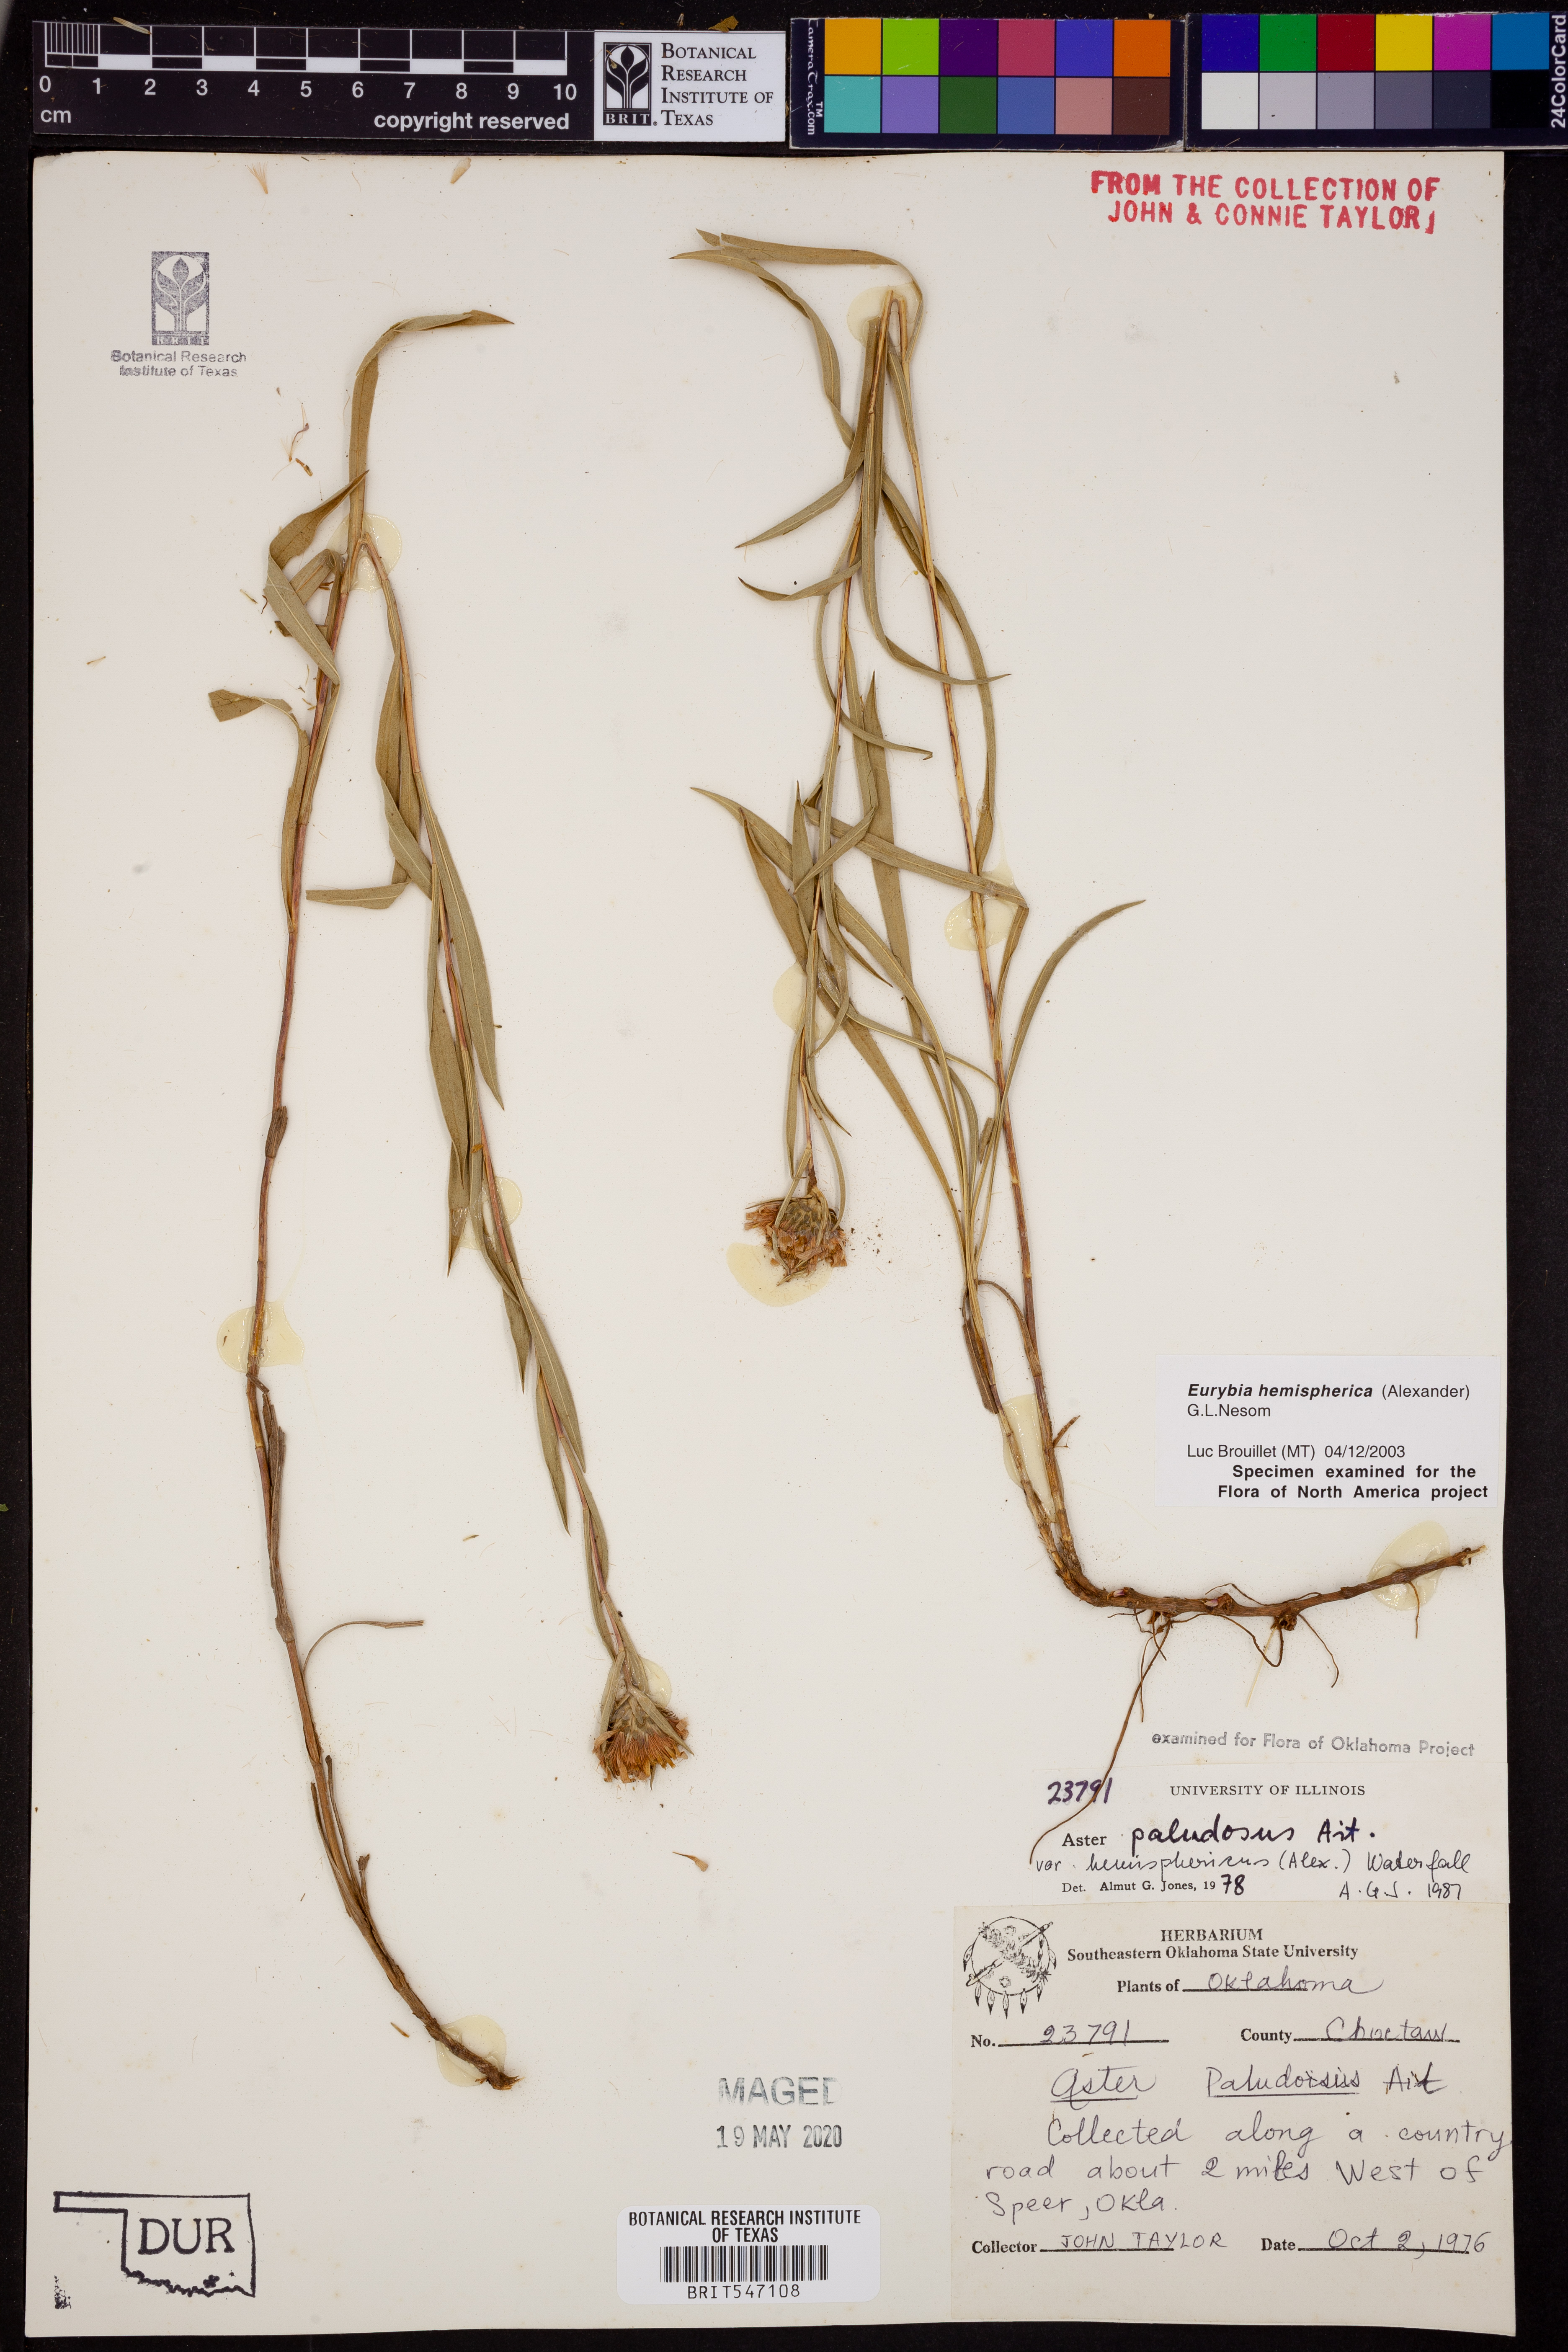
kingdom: Plantae
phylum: Tracheophyta
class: Magnoliopsida
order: Asterales
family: Asteraceae
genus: Eurybia
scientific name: Eurybia hemispherica
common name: Showy aster
